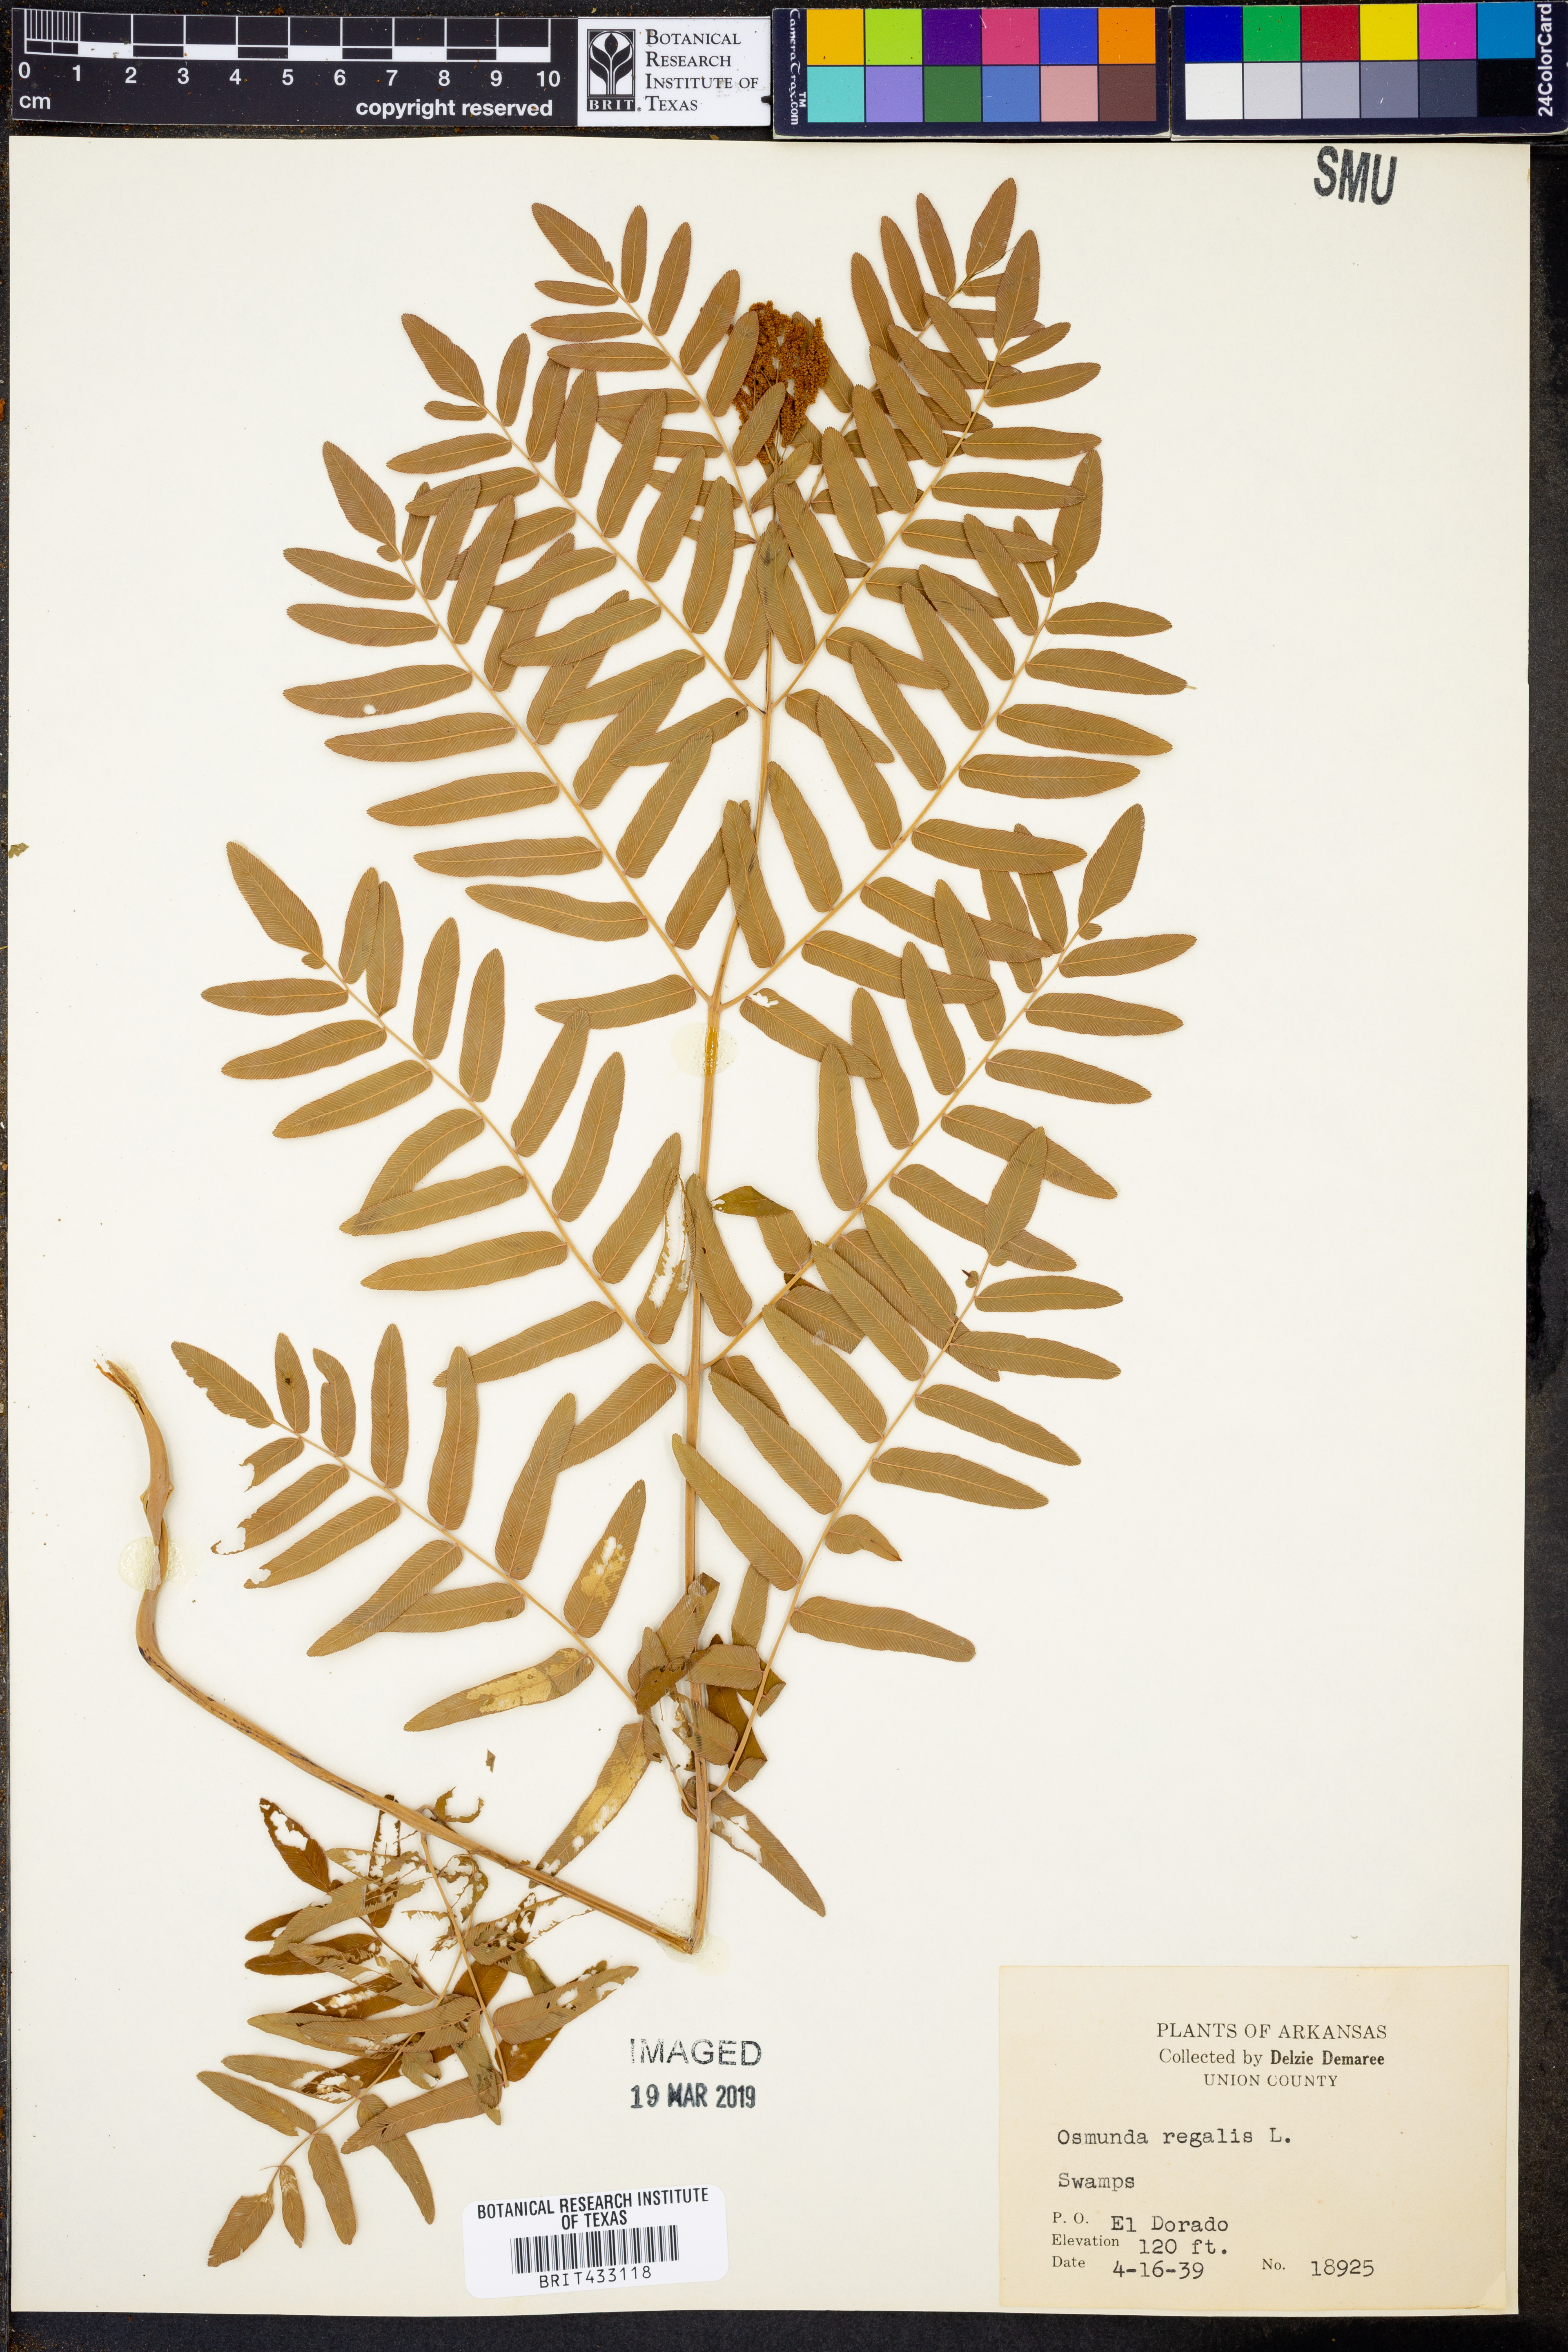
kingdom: Plantae
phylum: Tracheophyta
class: Polypodiopsida
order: Osmundales
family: Osmundaceae
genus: Osmunda
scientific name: Osmunda regalis
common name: Royal fern
